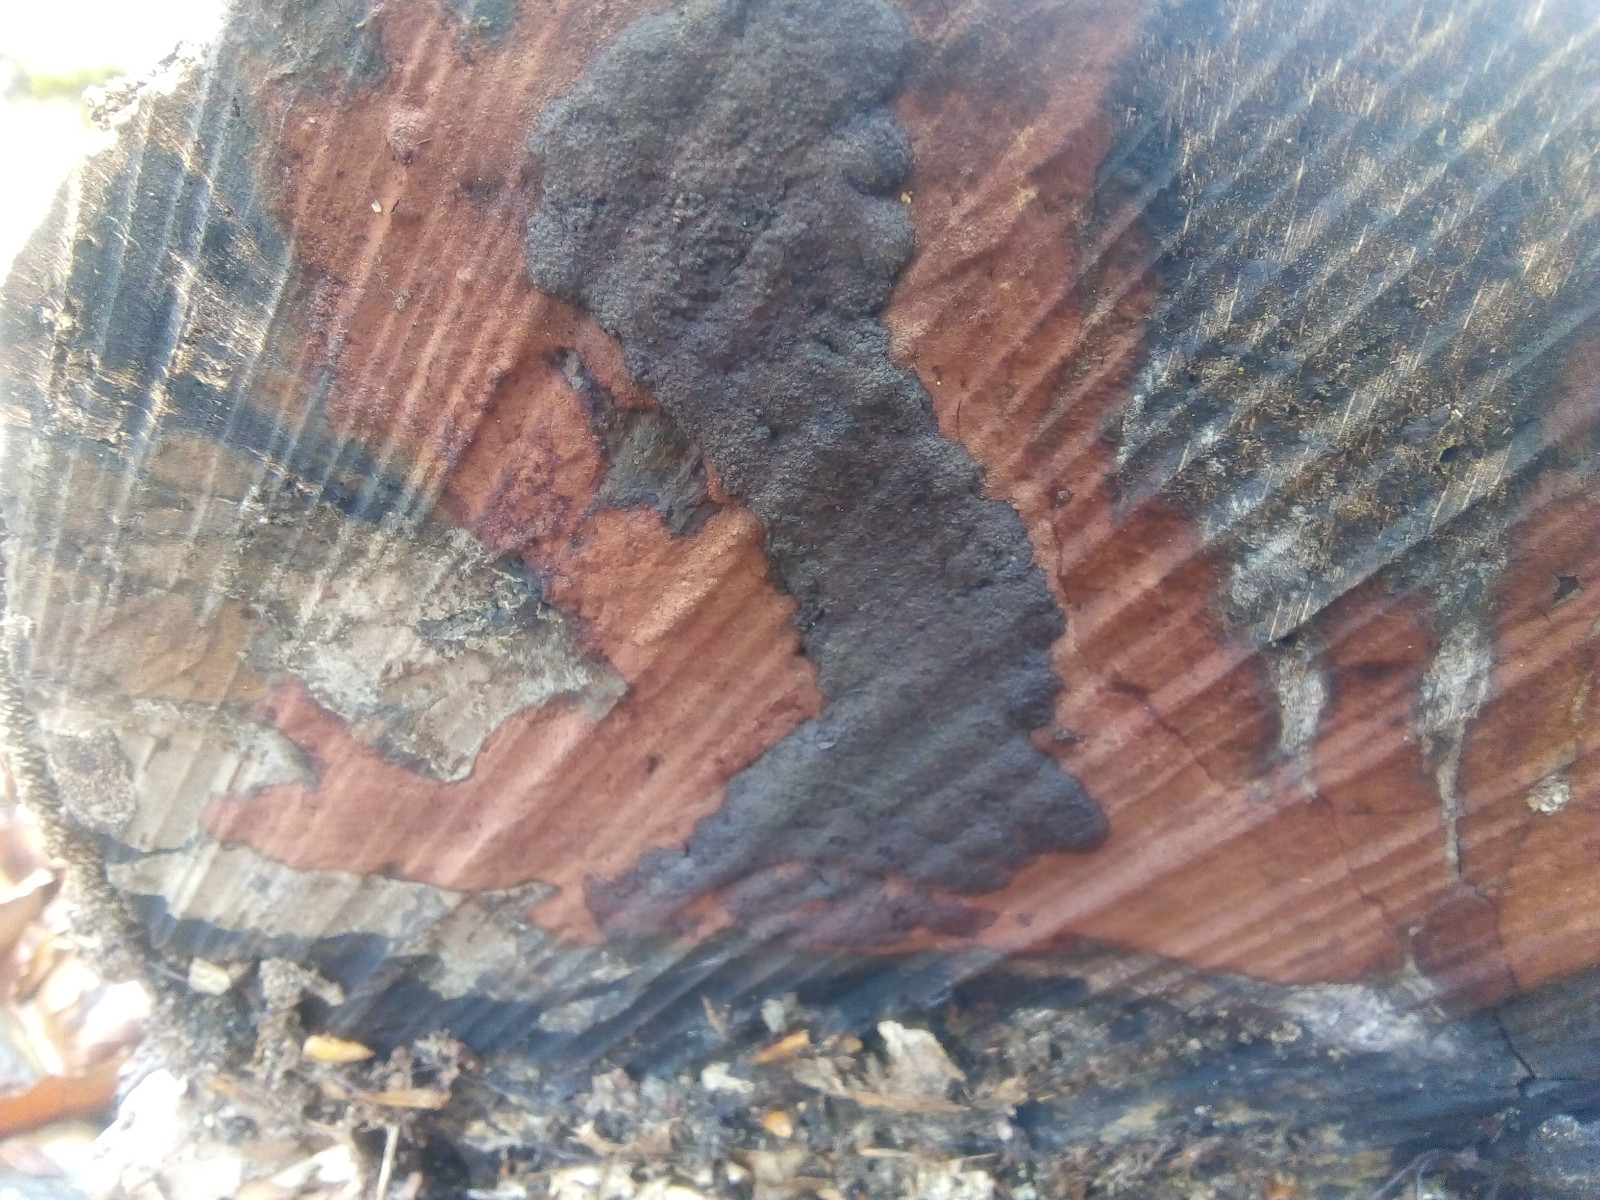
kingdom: Fungi
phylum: Ascomycota
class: Sordariomycetes
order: Xylariales
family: Hypoxylaceae
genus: Hypoxylon
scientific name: Hypoxylon macrocarpum
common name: skorpe-kulbær
